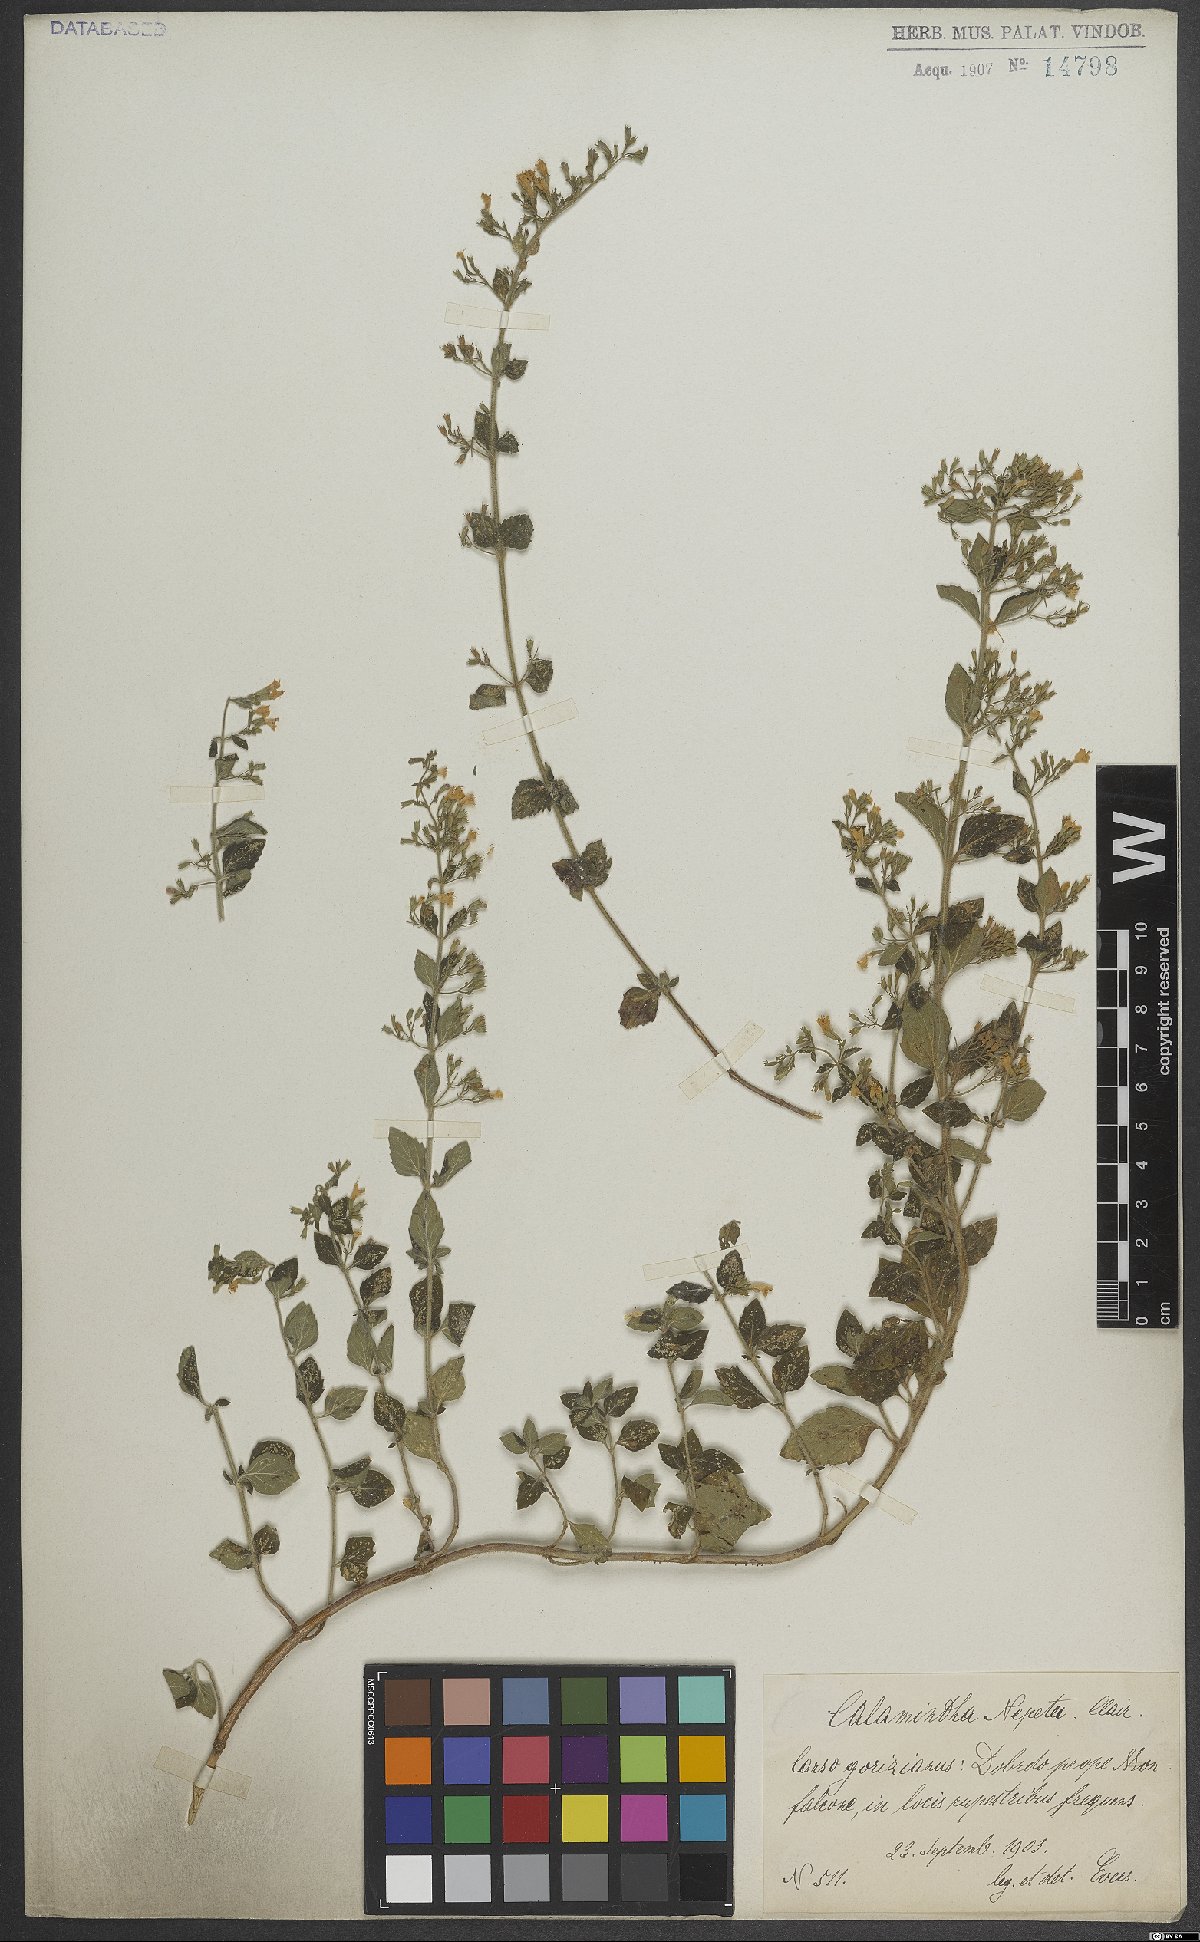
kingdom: Plantae
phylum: Tracheophyta
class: Magnoliopsida
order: Lamiales
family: Lamiaceae
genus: Clinopodium
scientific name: Clinopodium nepeta
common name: Lesser calamint
